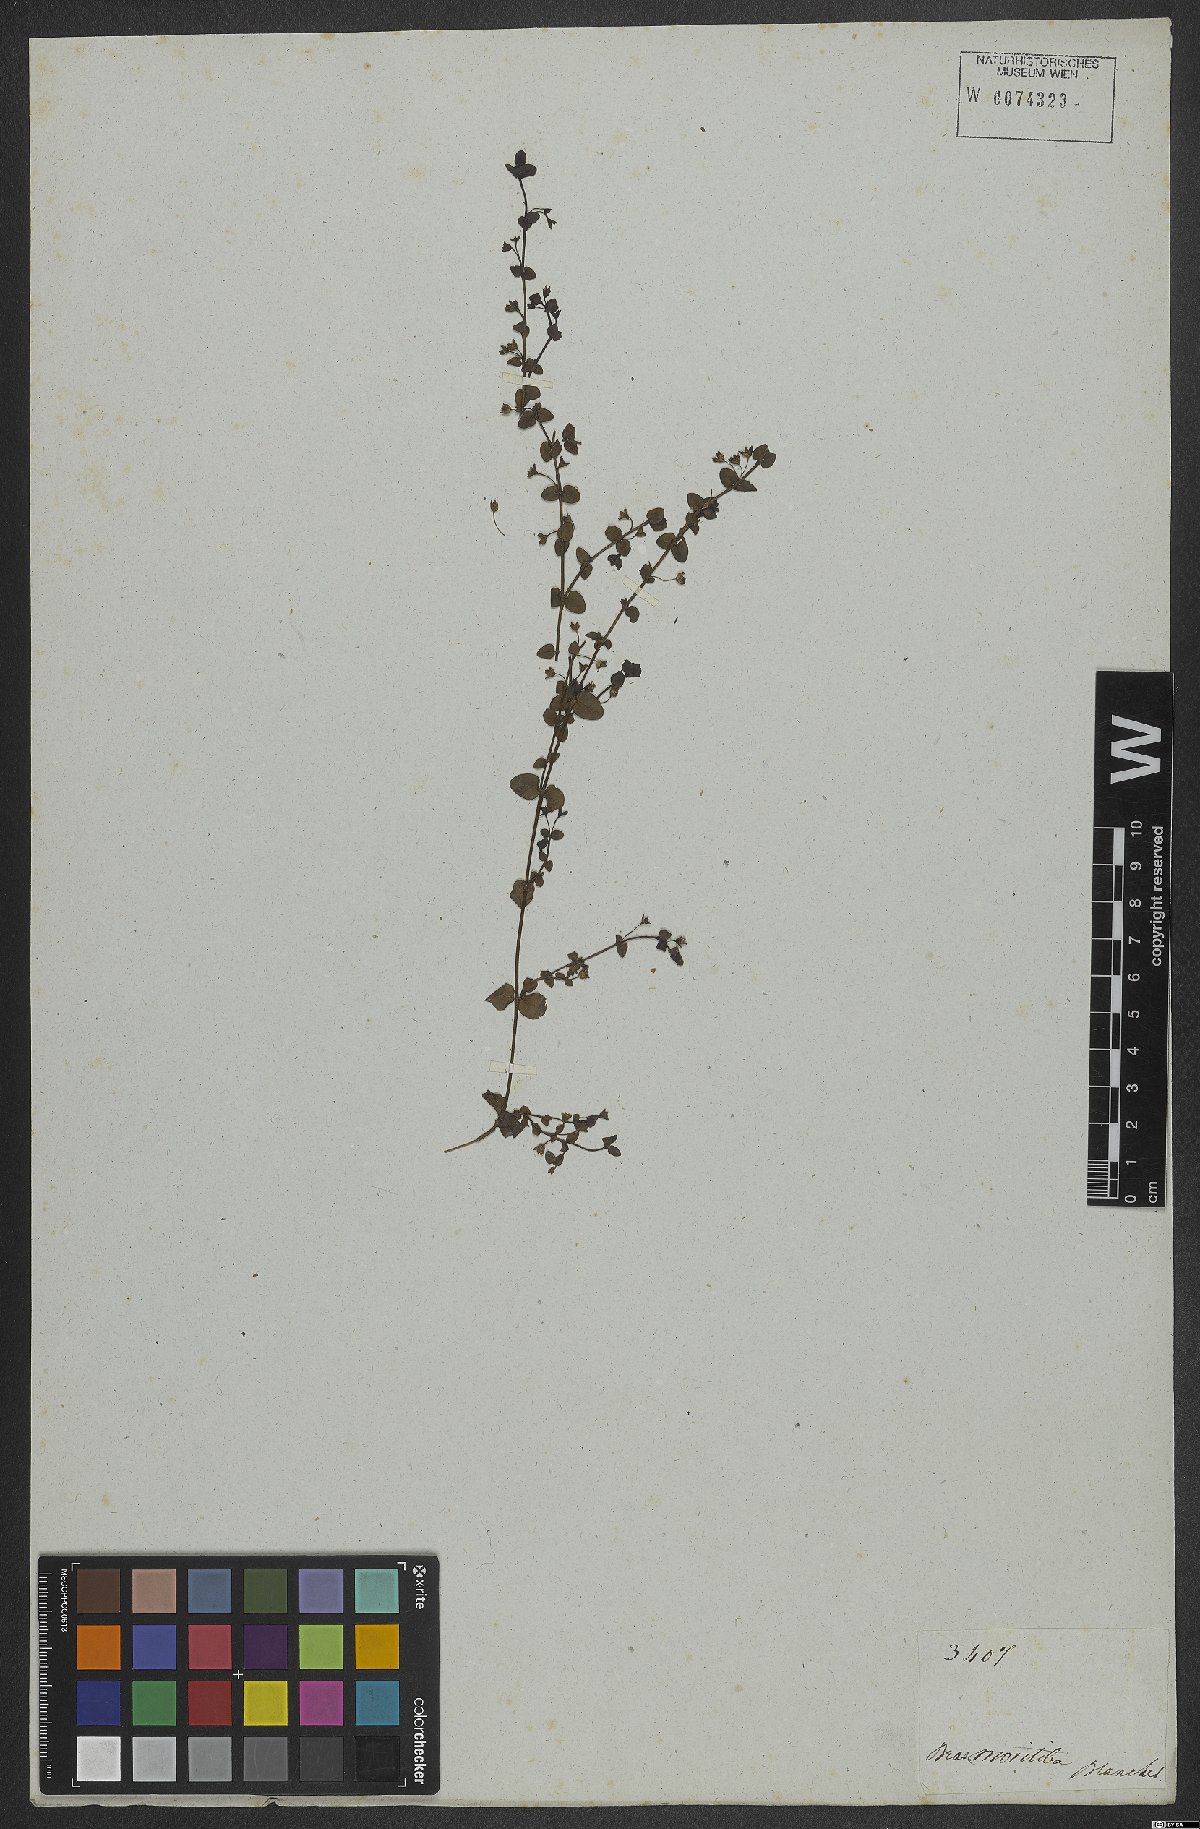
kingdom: Plantae
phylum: Tracheophyta
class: Magnoliopsida
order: Lamiales
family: Plantaginaceae
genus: Conobea
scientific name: Conobea
